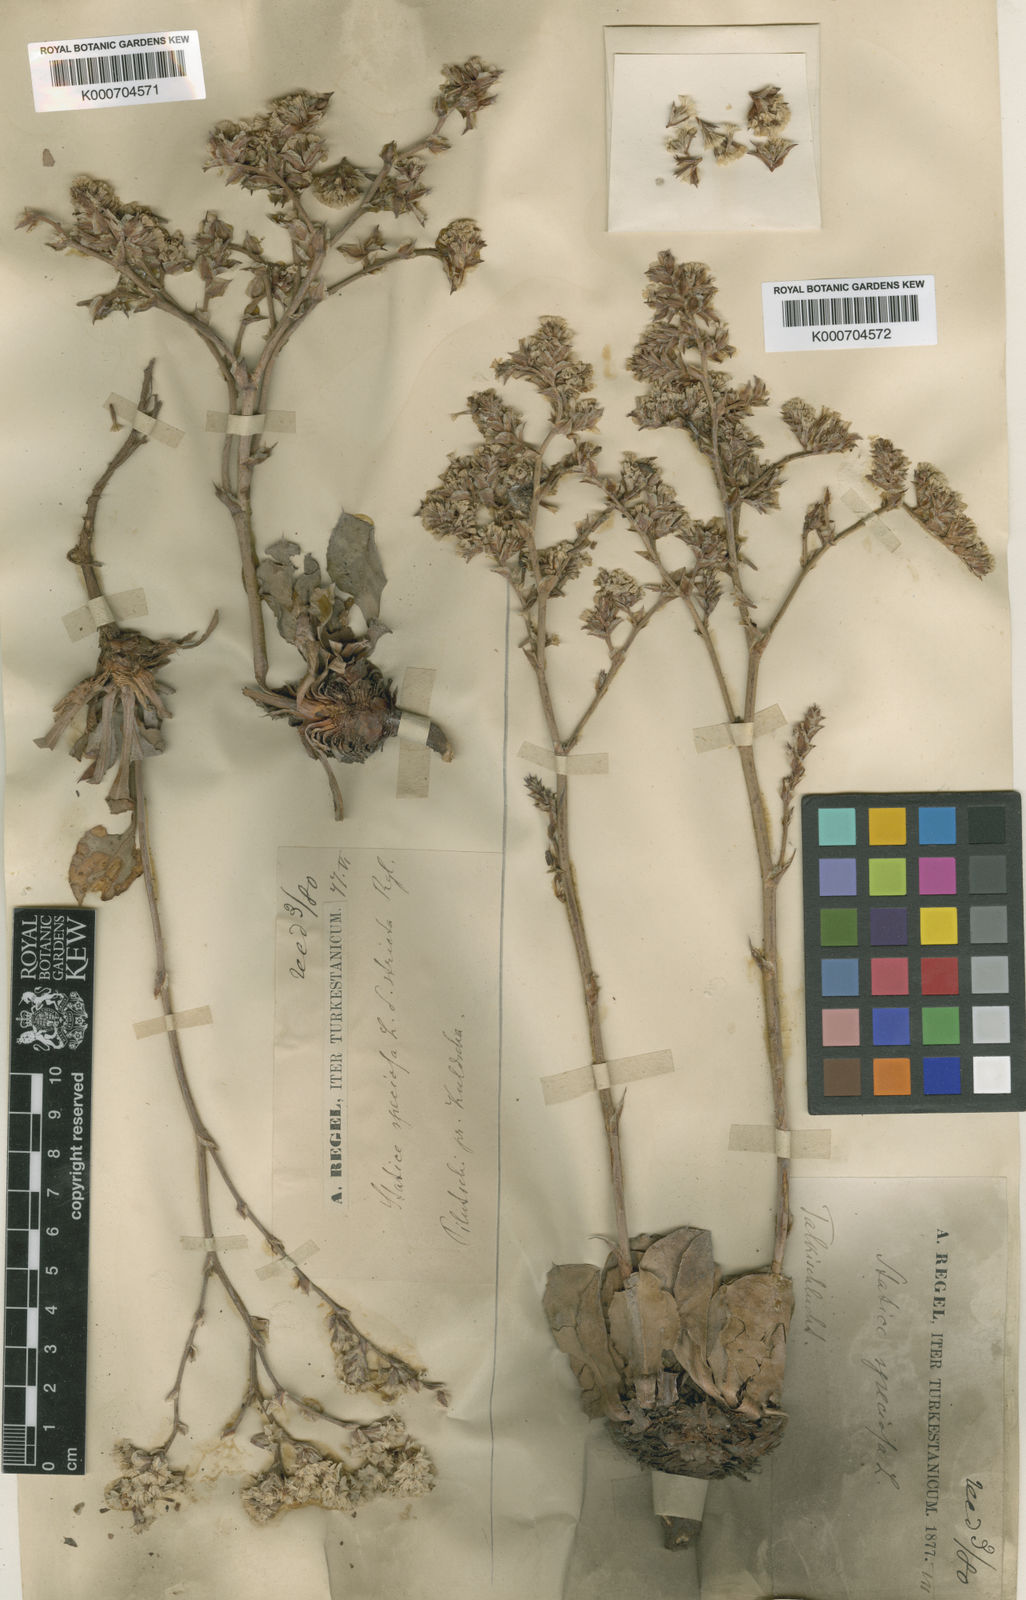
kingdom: Plantae
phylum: Tracheophyta
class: Magnoliopsida
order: Caryophyllales
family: Plumbaginaceae
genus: Goniolimon
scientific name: Goniolimon speciosum
